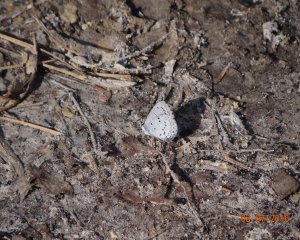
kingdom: Animalia
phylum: Arthropoda
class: Insecta
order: Lepidoptera
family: Lycaenidae
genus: Celastrina
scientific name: Celastrina
